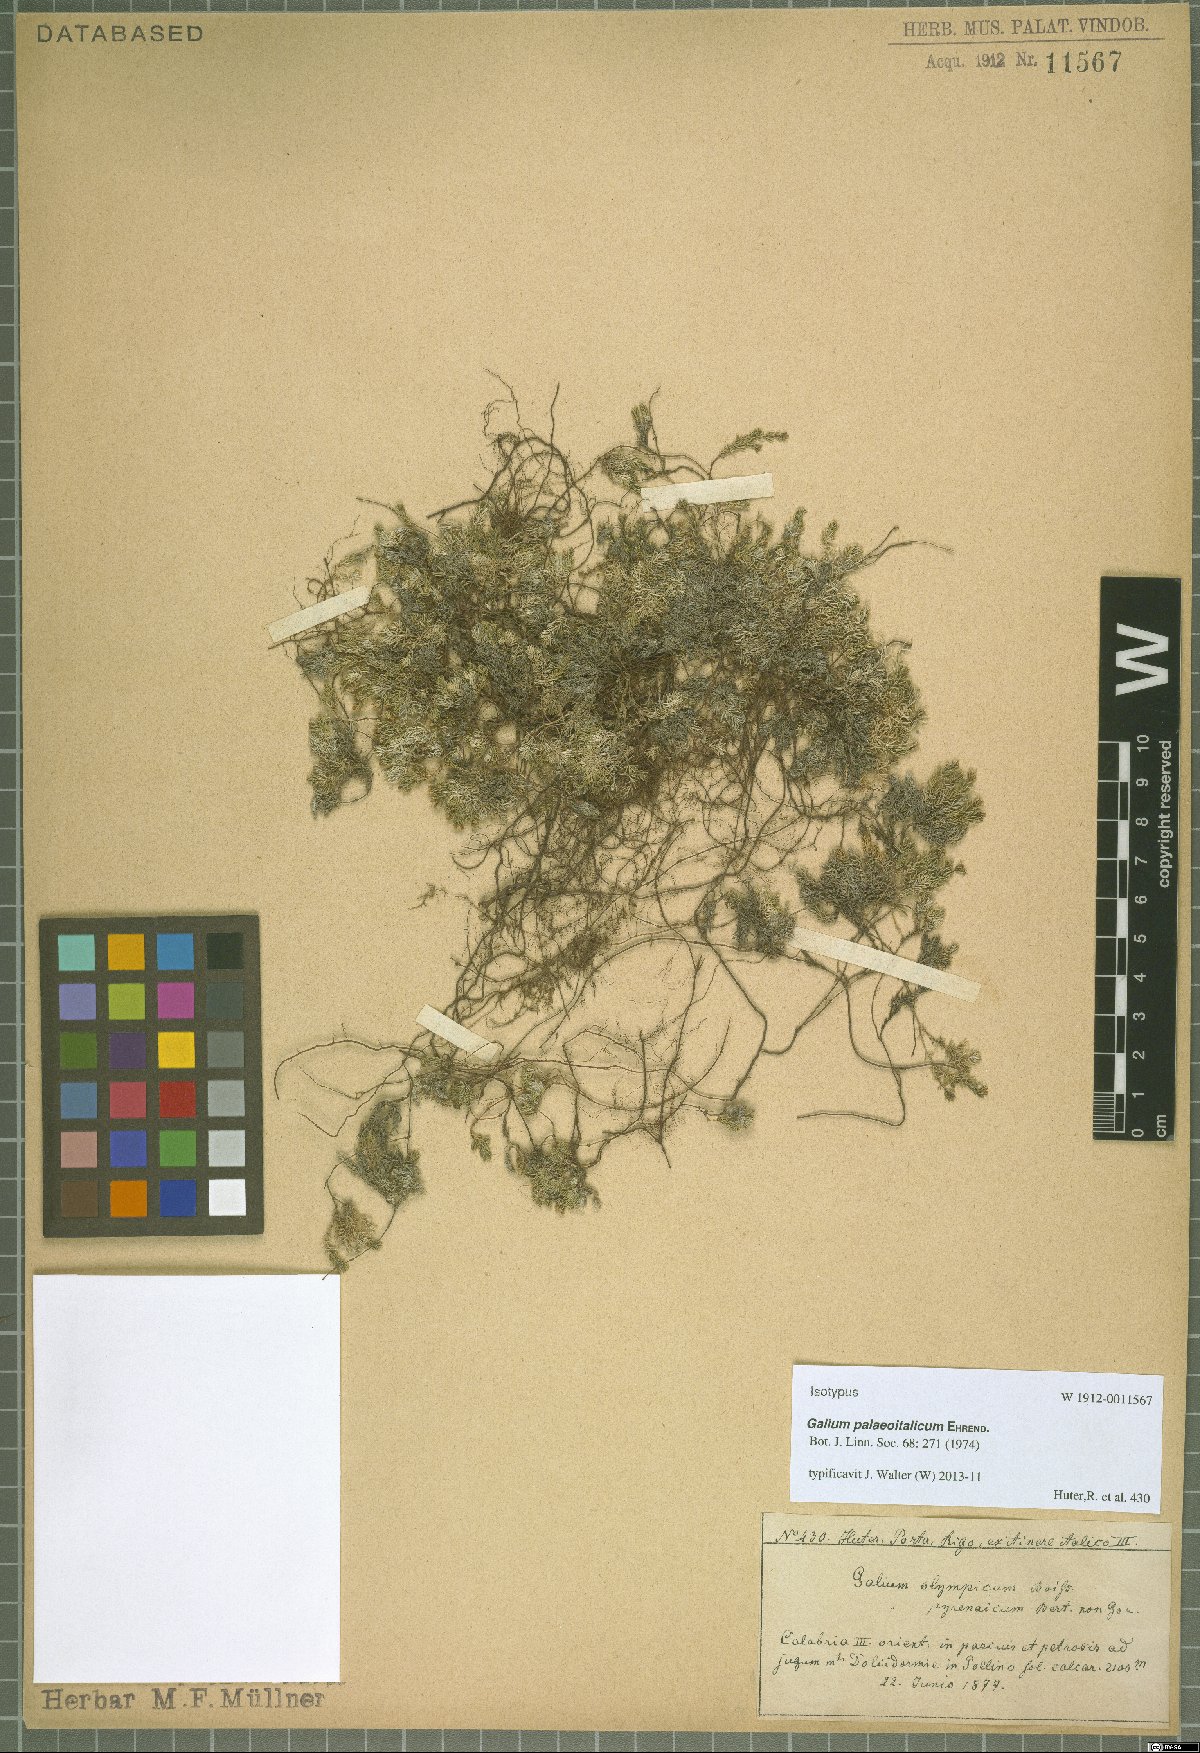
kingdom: Plantae
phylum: Tracheophyta
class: Magnoliopsida
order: Gentianales
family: Rubiaceae
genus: Galium
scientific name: Galium palaeoitalicum
